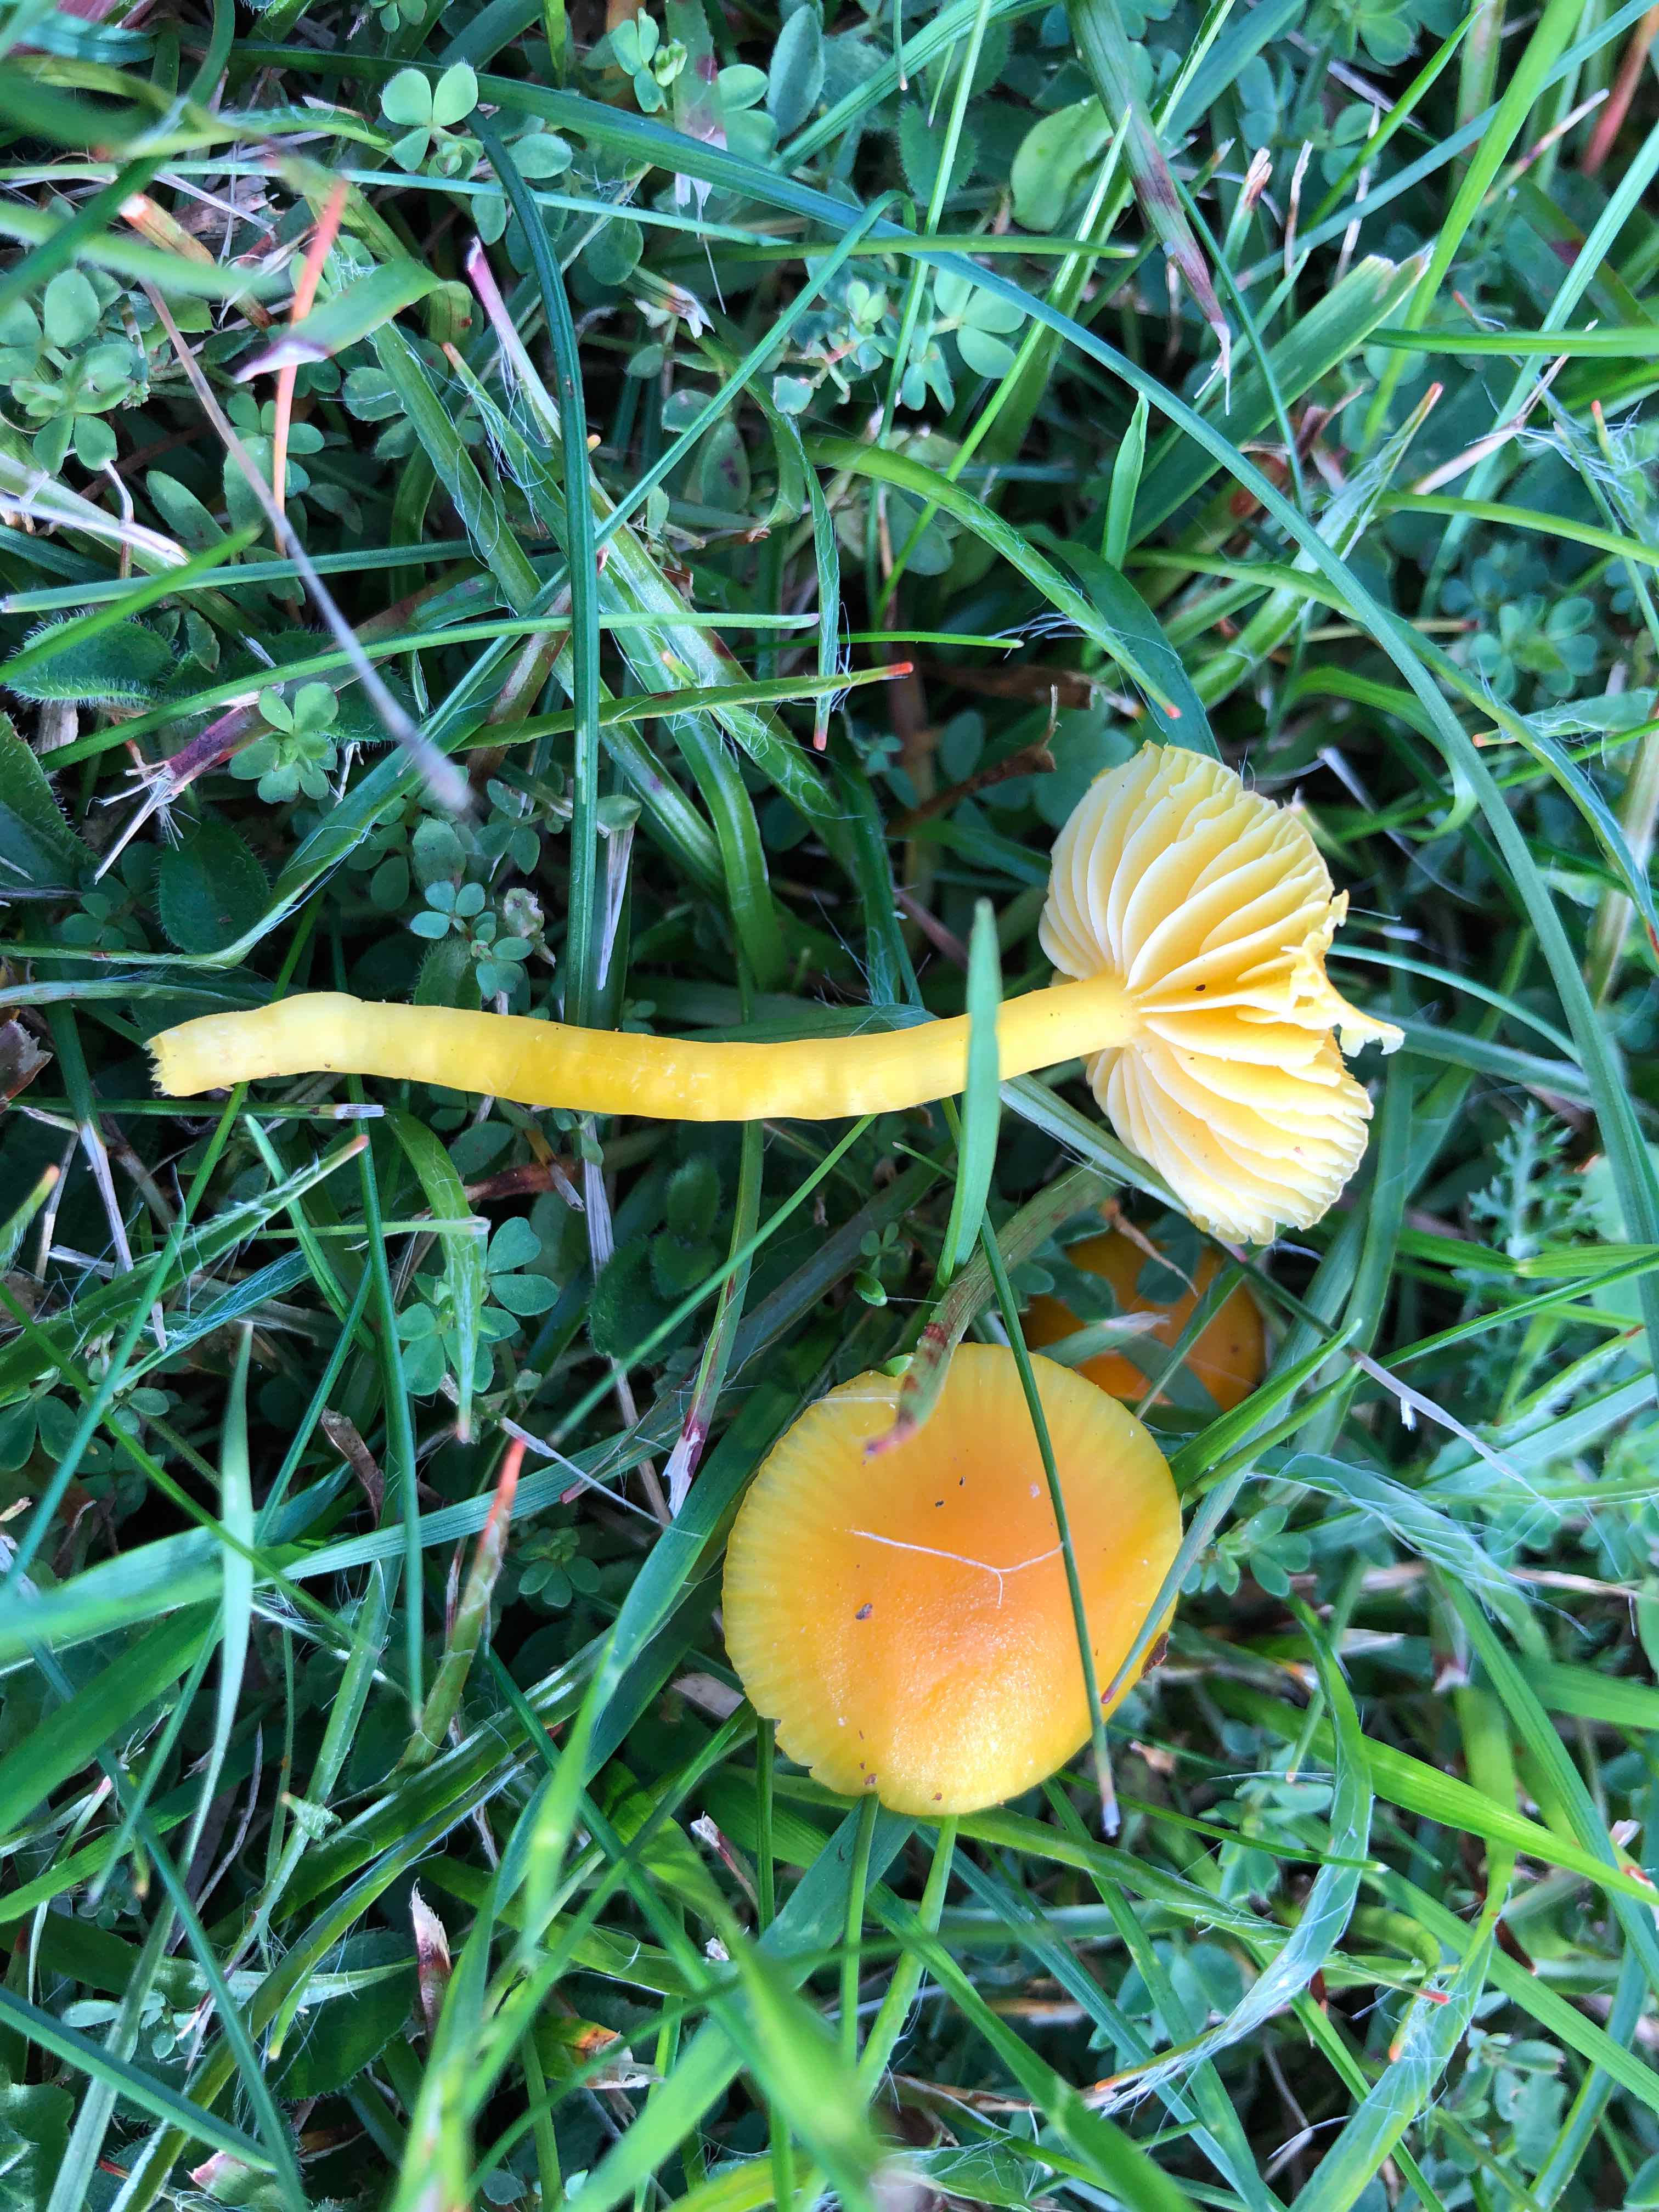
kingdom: Fungi
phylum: Basidiomycota
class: Agaricomycetes
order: Agaricales
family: Hygrophoraceae
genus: Hygrocybe
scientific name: Hygrocybe ceracea
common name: voksgul vokshat
